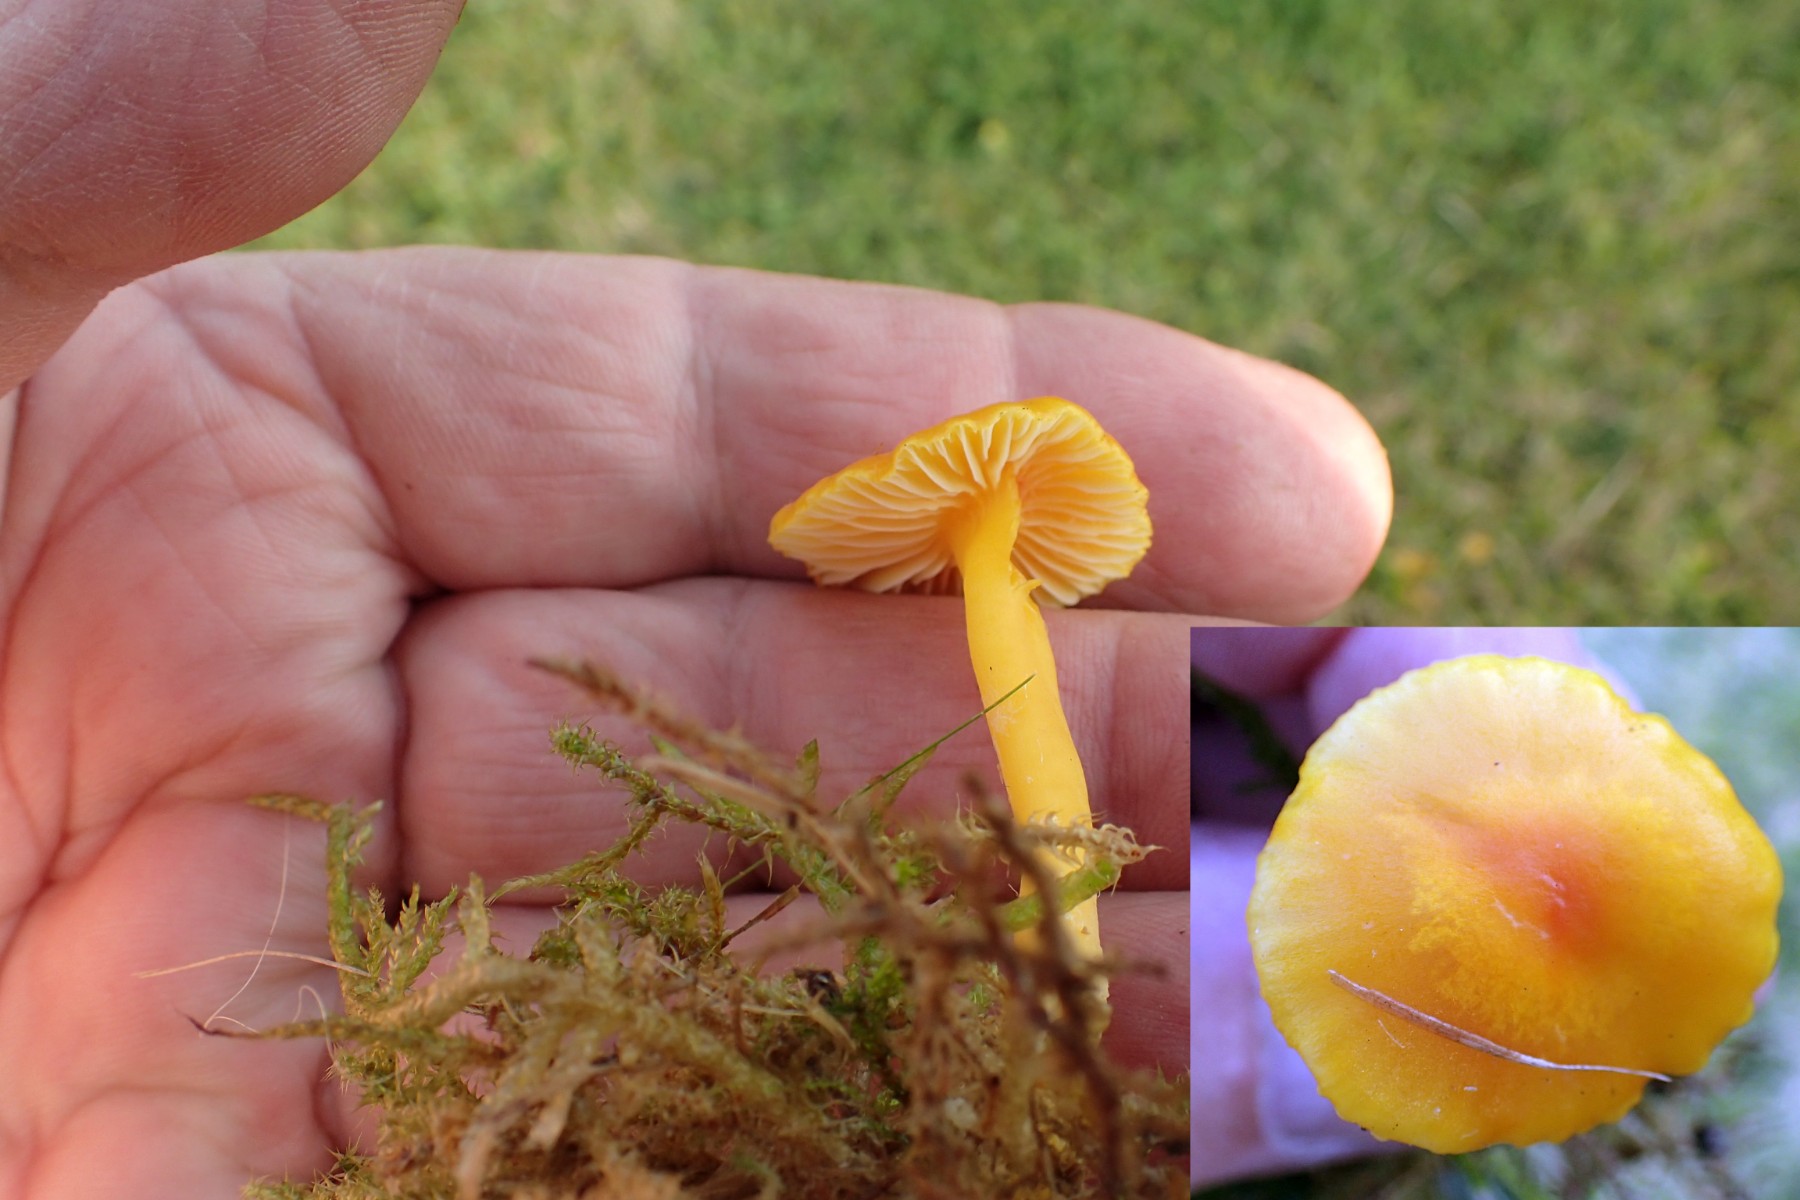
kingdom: Fungi
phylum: Basidiomycota
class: Agaricomycetes
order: Agaricales
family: Hygrophoraceae
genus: Hygrocybe
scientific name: Hygrocybe ceracea
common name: voksgul vokshat
